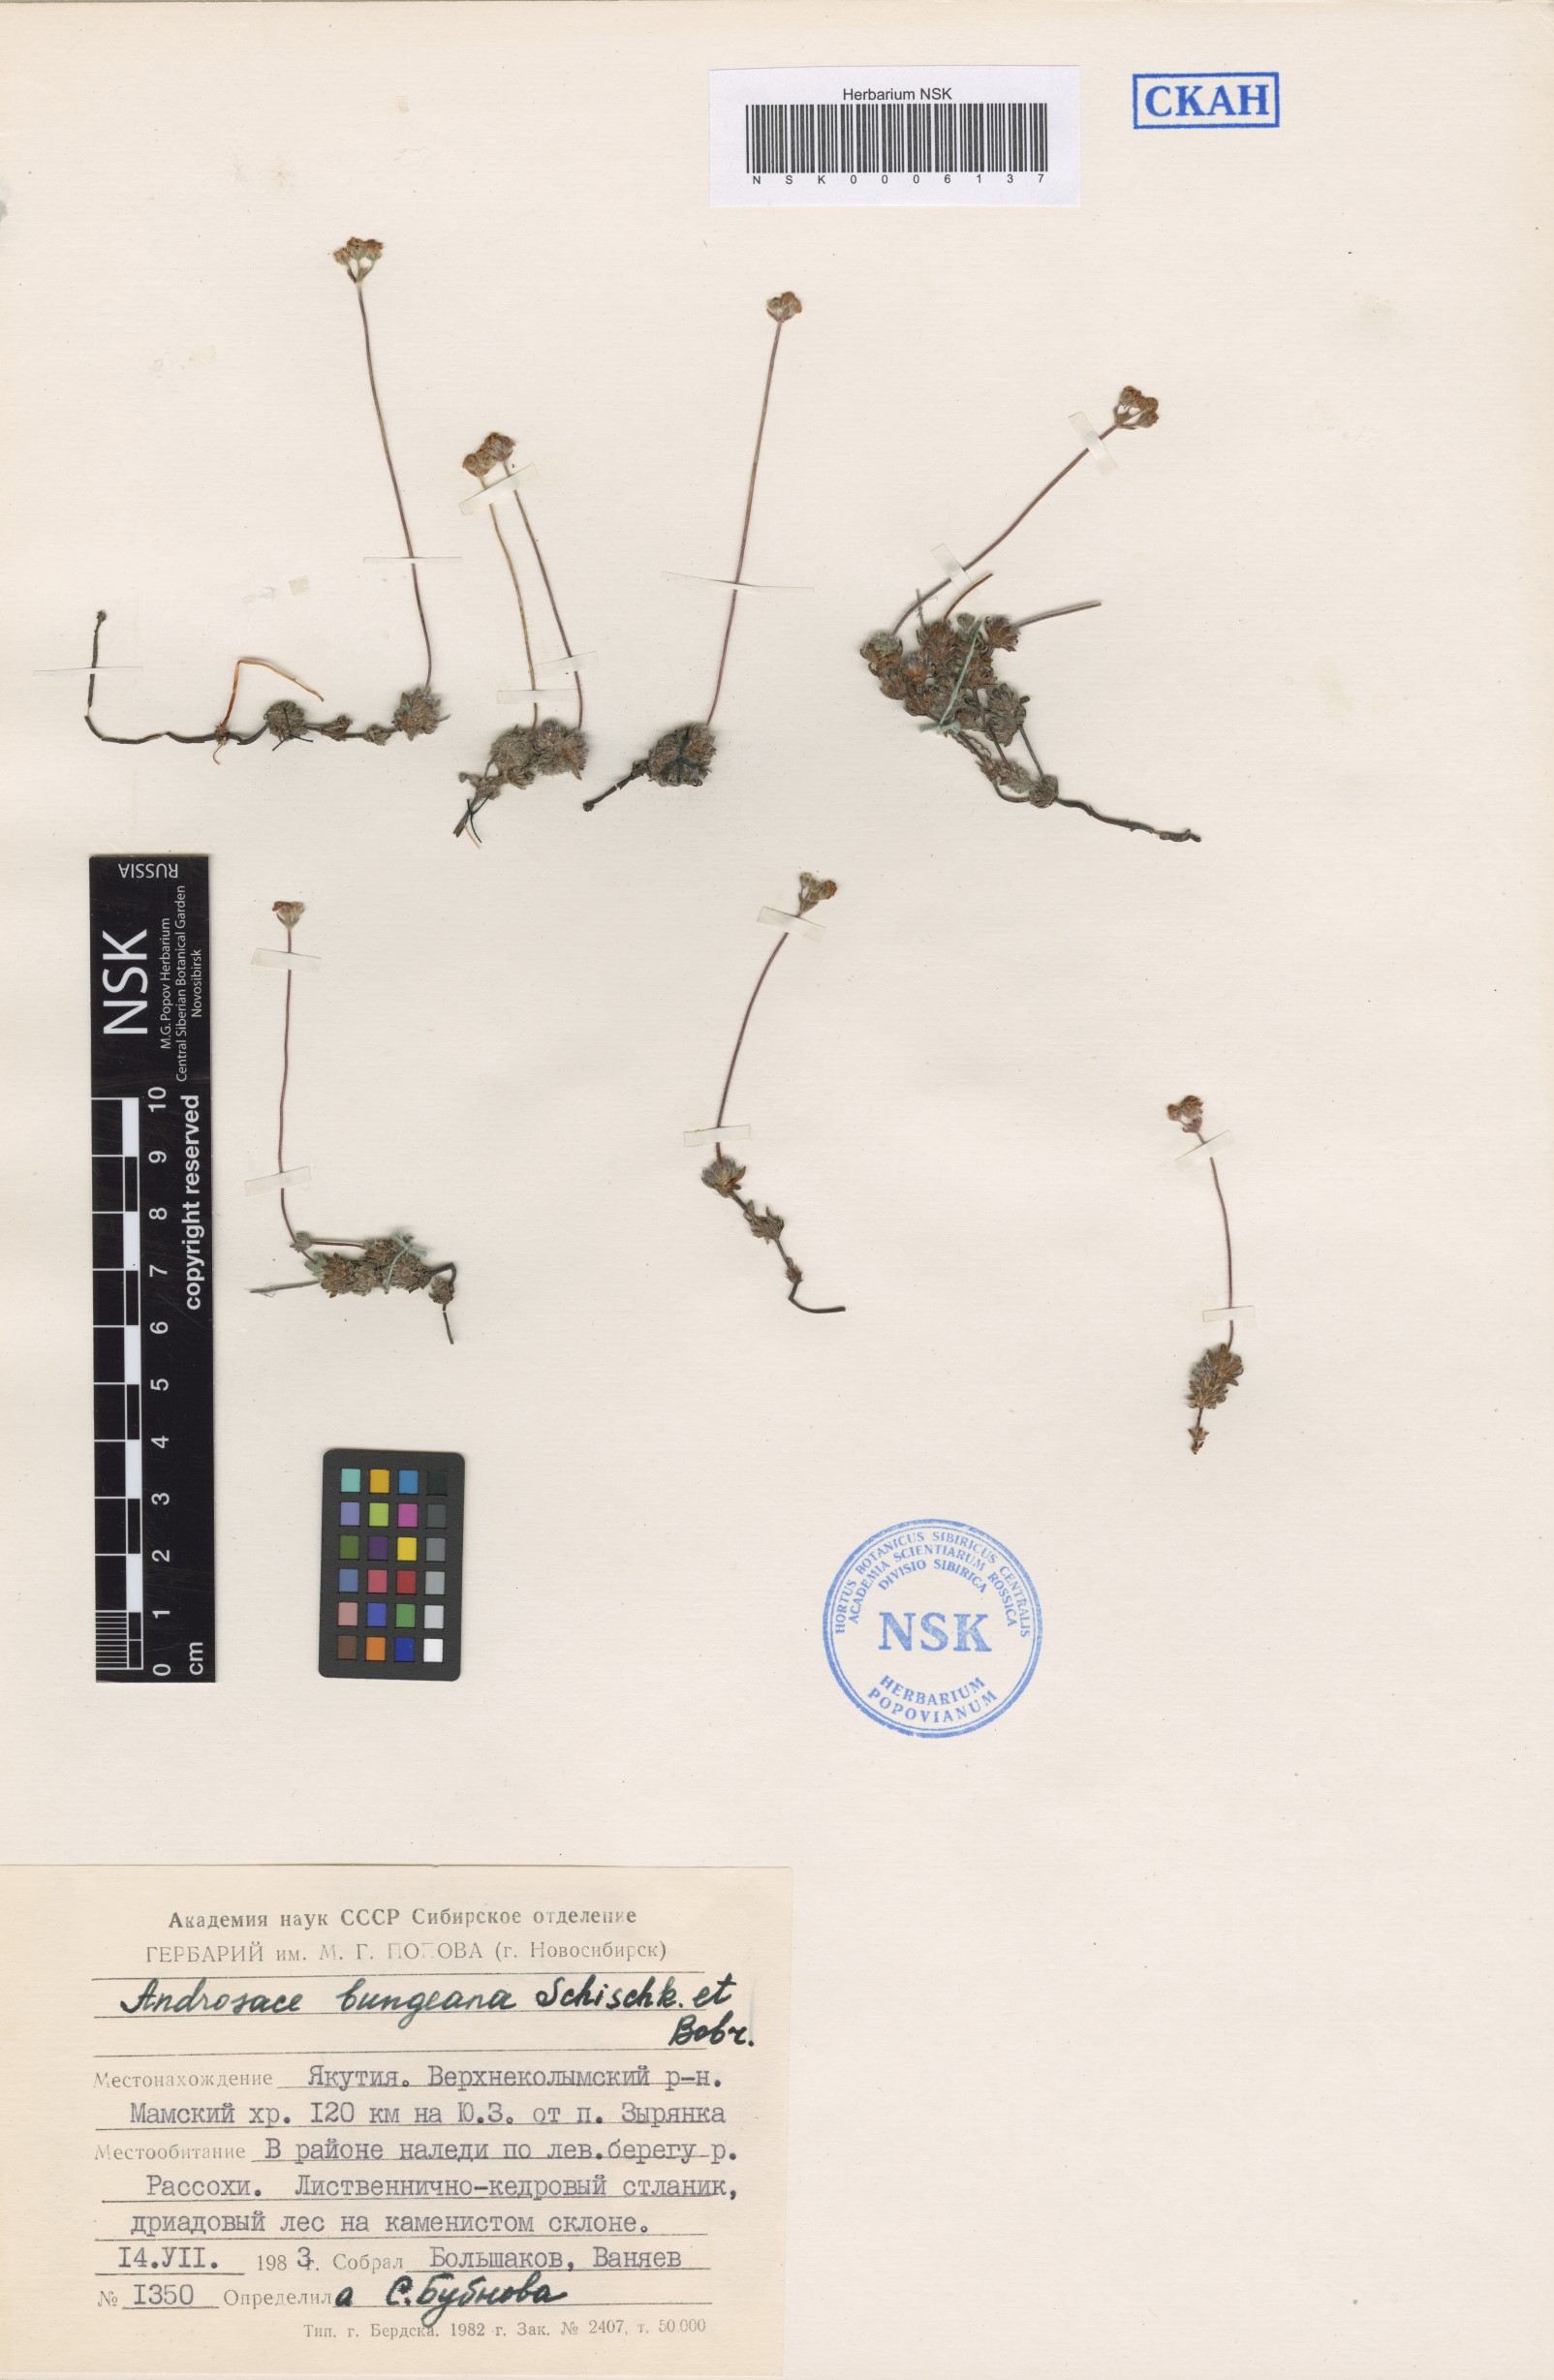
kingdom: Plantae
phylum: Tracheophyta
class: Magnoliopsida
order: Ericales
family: Primulaceae
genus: Androsace
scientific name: Androsace bungeana
